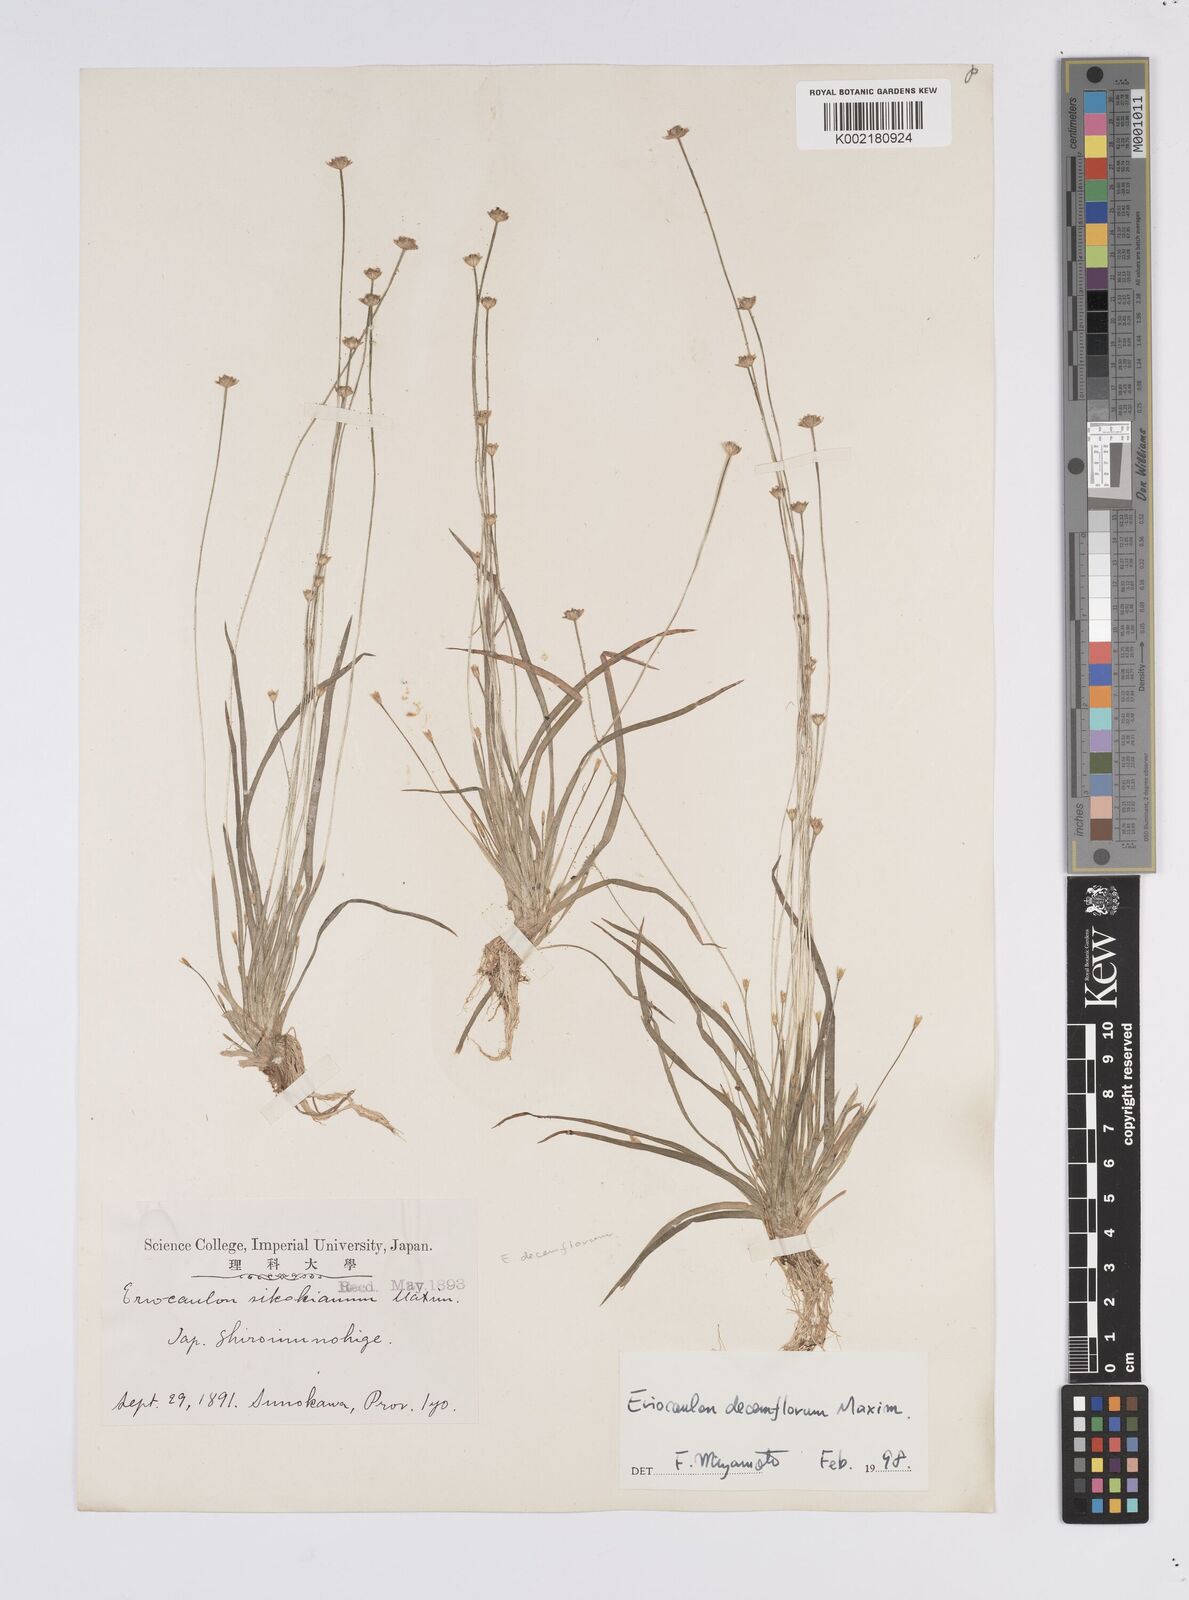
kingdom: Plantae
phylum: Tracheophyta
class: Liliopsida
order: Poales
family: Eriocaulaceae
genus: Eriocaulon
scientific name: Eriocaulon decemflorum
